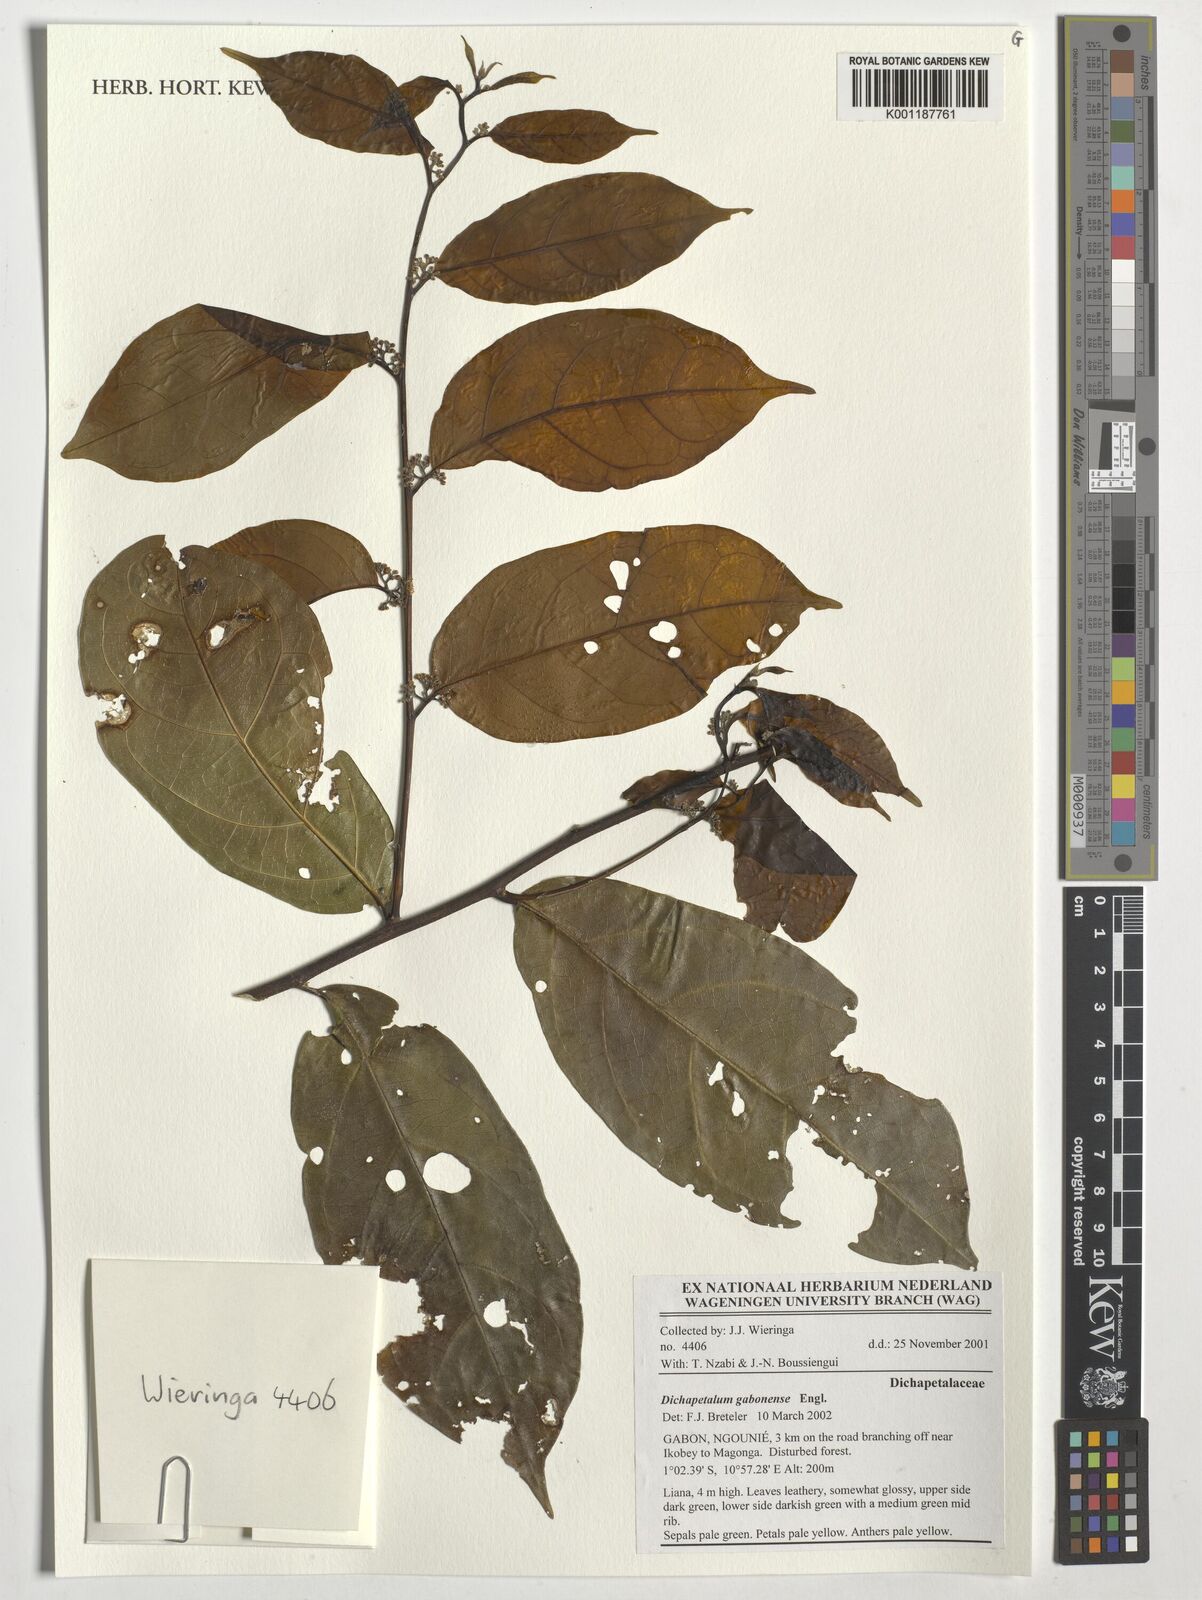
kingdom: Plantae
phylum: Tracheophyta
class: Magnoliopsida
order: Malpighiales
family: Dichapetalaceae
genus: Dichapetalum
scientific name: Dichapetalum gabonense
